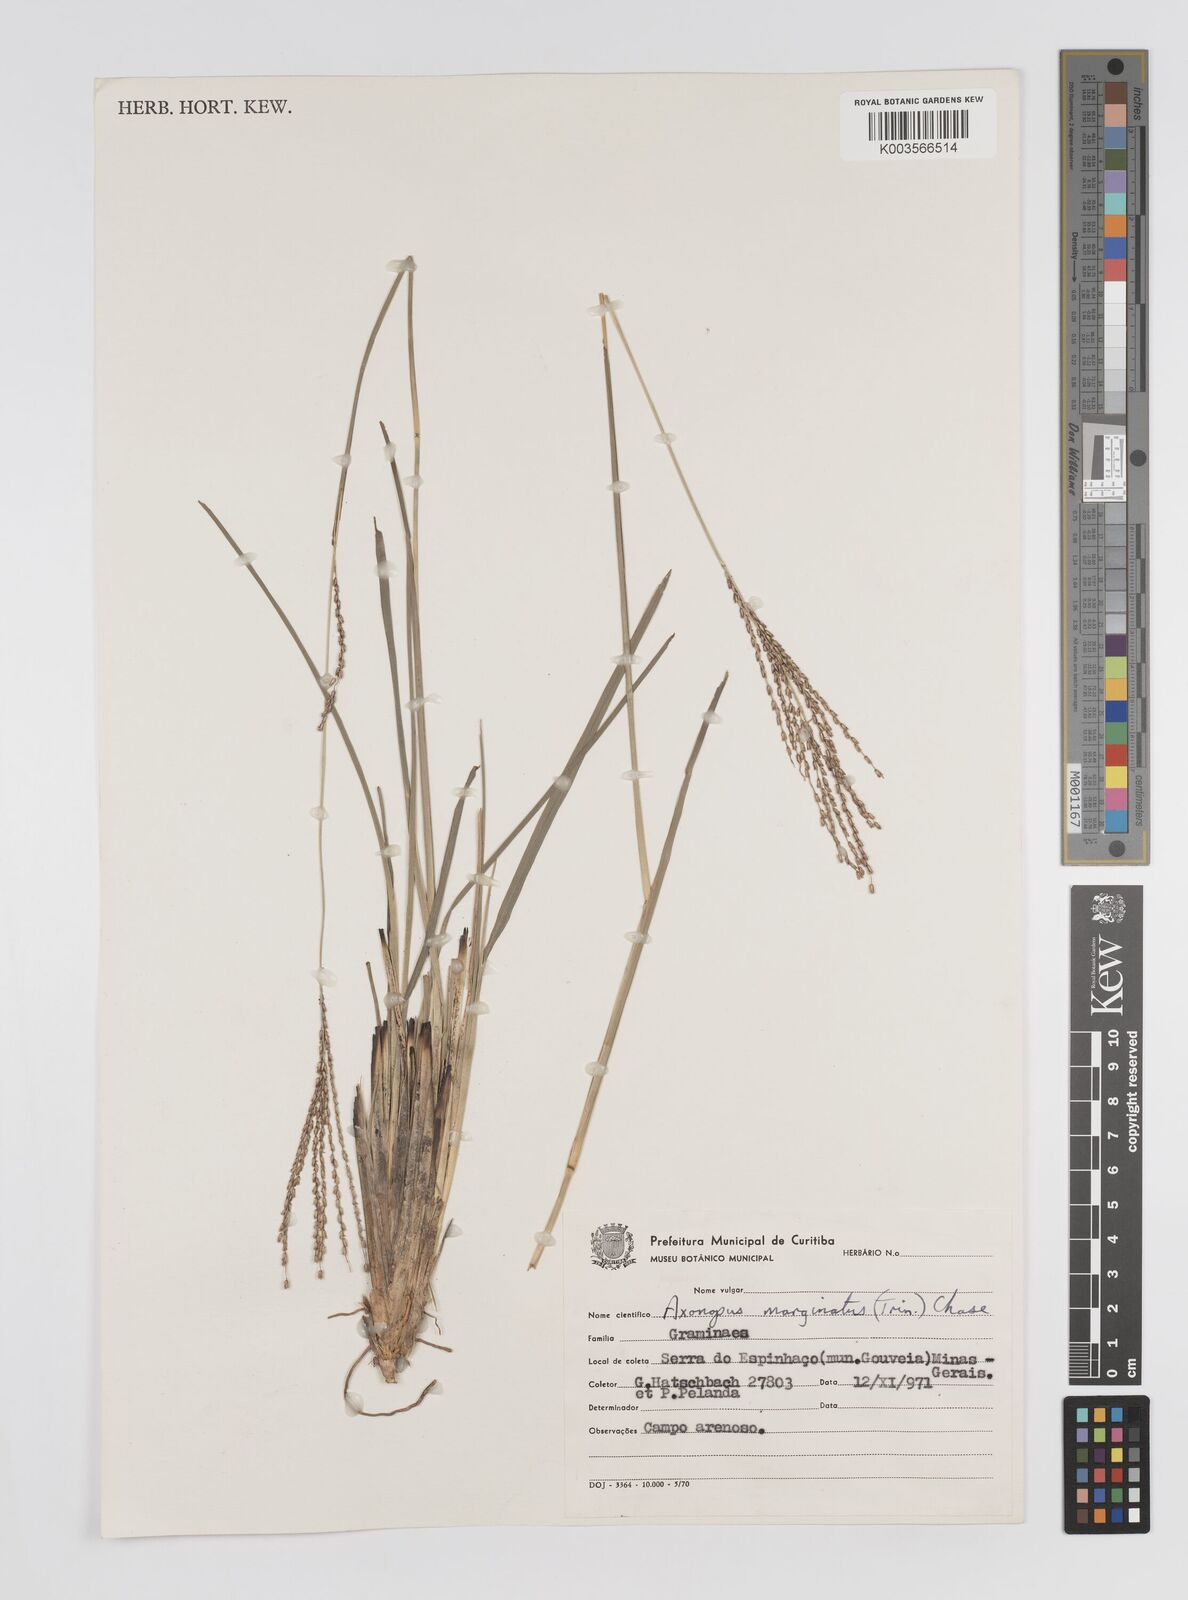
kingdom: Plantae
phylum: Tracheophyta
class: Liliopsida
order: Poales
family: Poaceae
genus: Axonopus
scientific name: Axonopus marginatus
